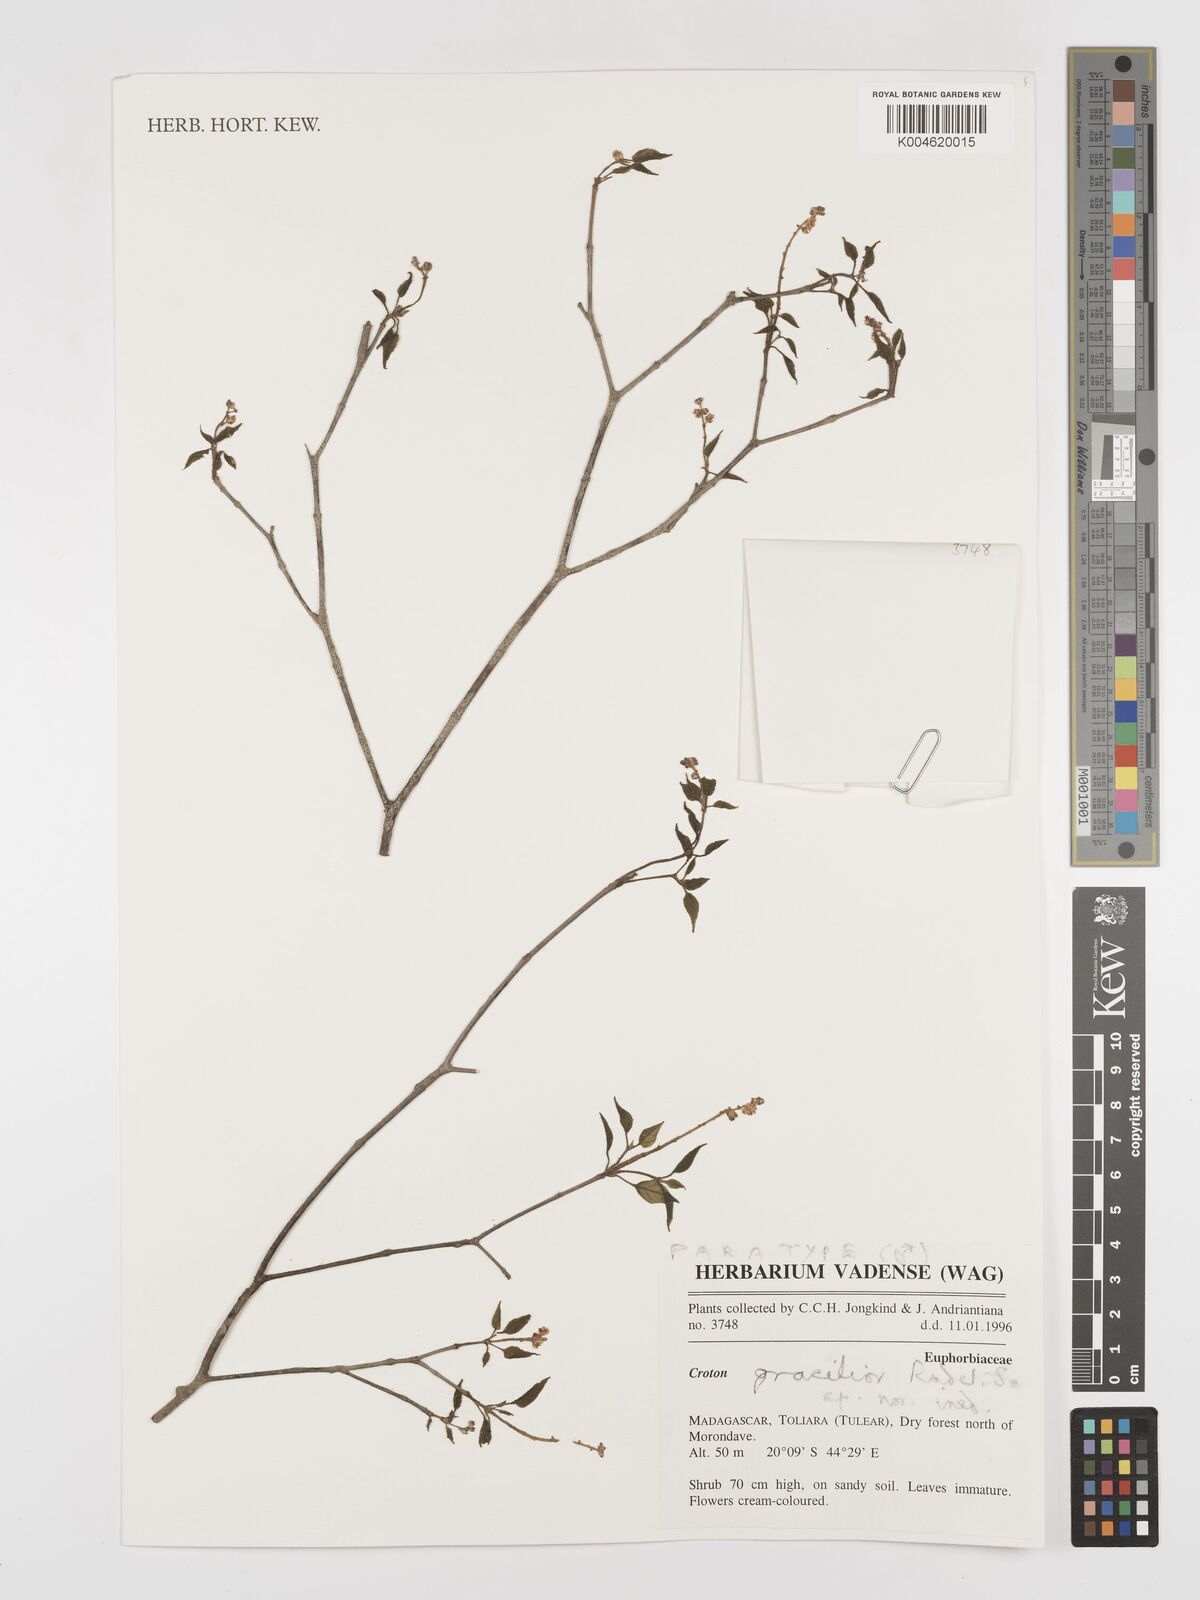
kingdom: Plantae
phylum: Tracheophyta
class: Magnoliopsida
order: Malpighiales
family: Euphorbiaceae
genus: Croton
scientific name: Croton gracilior
